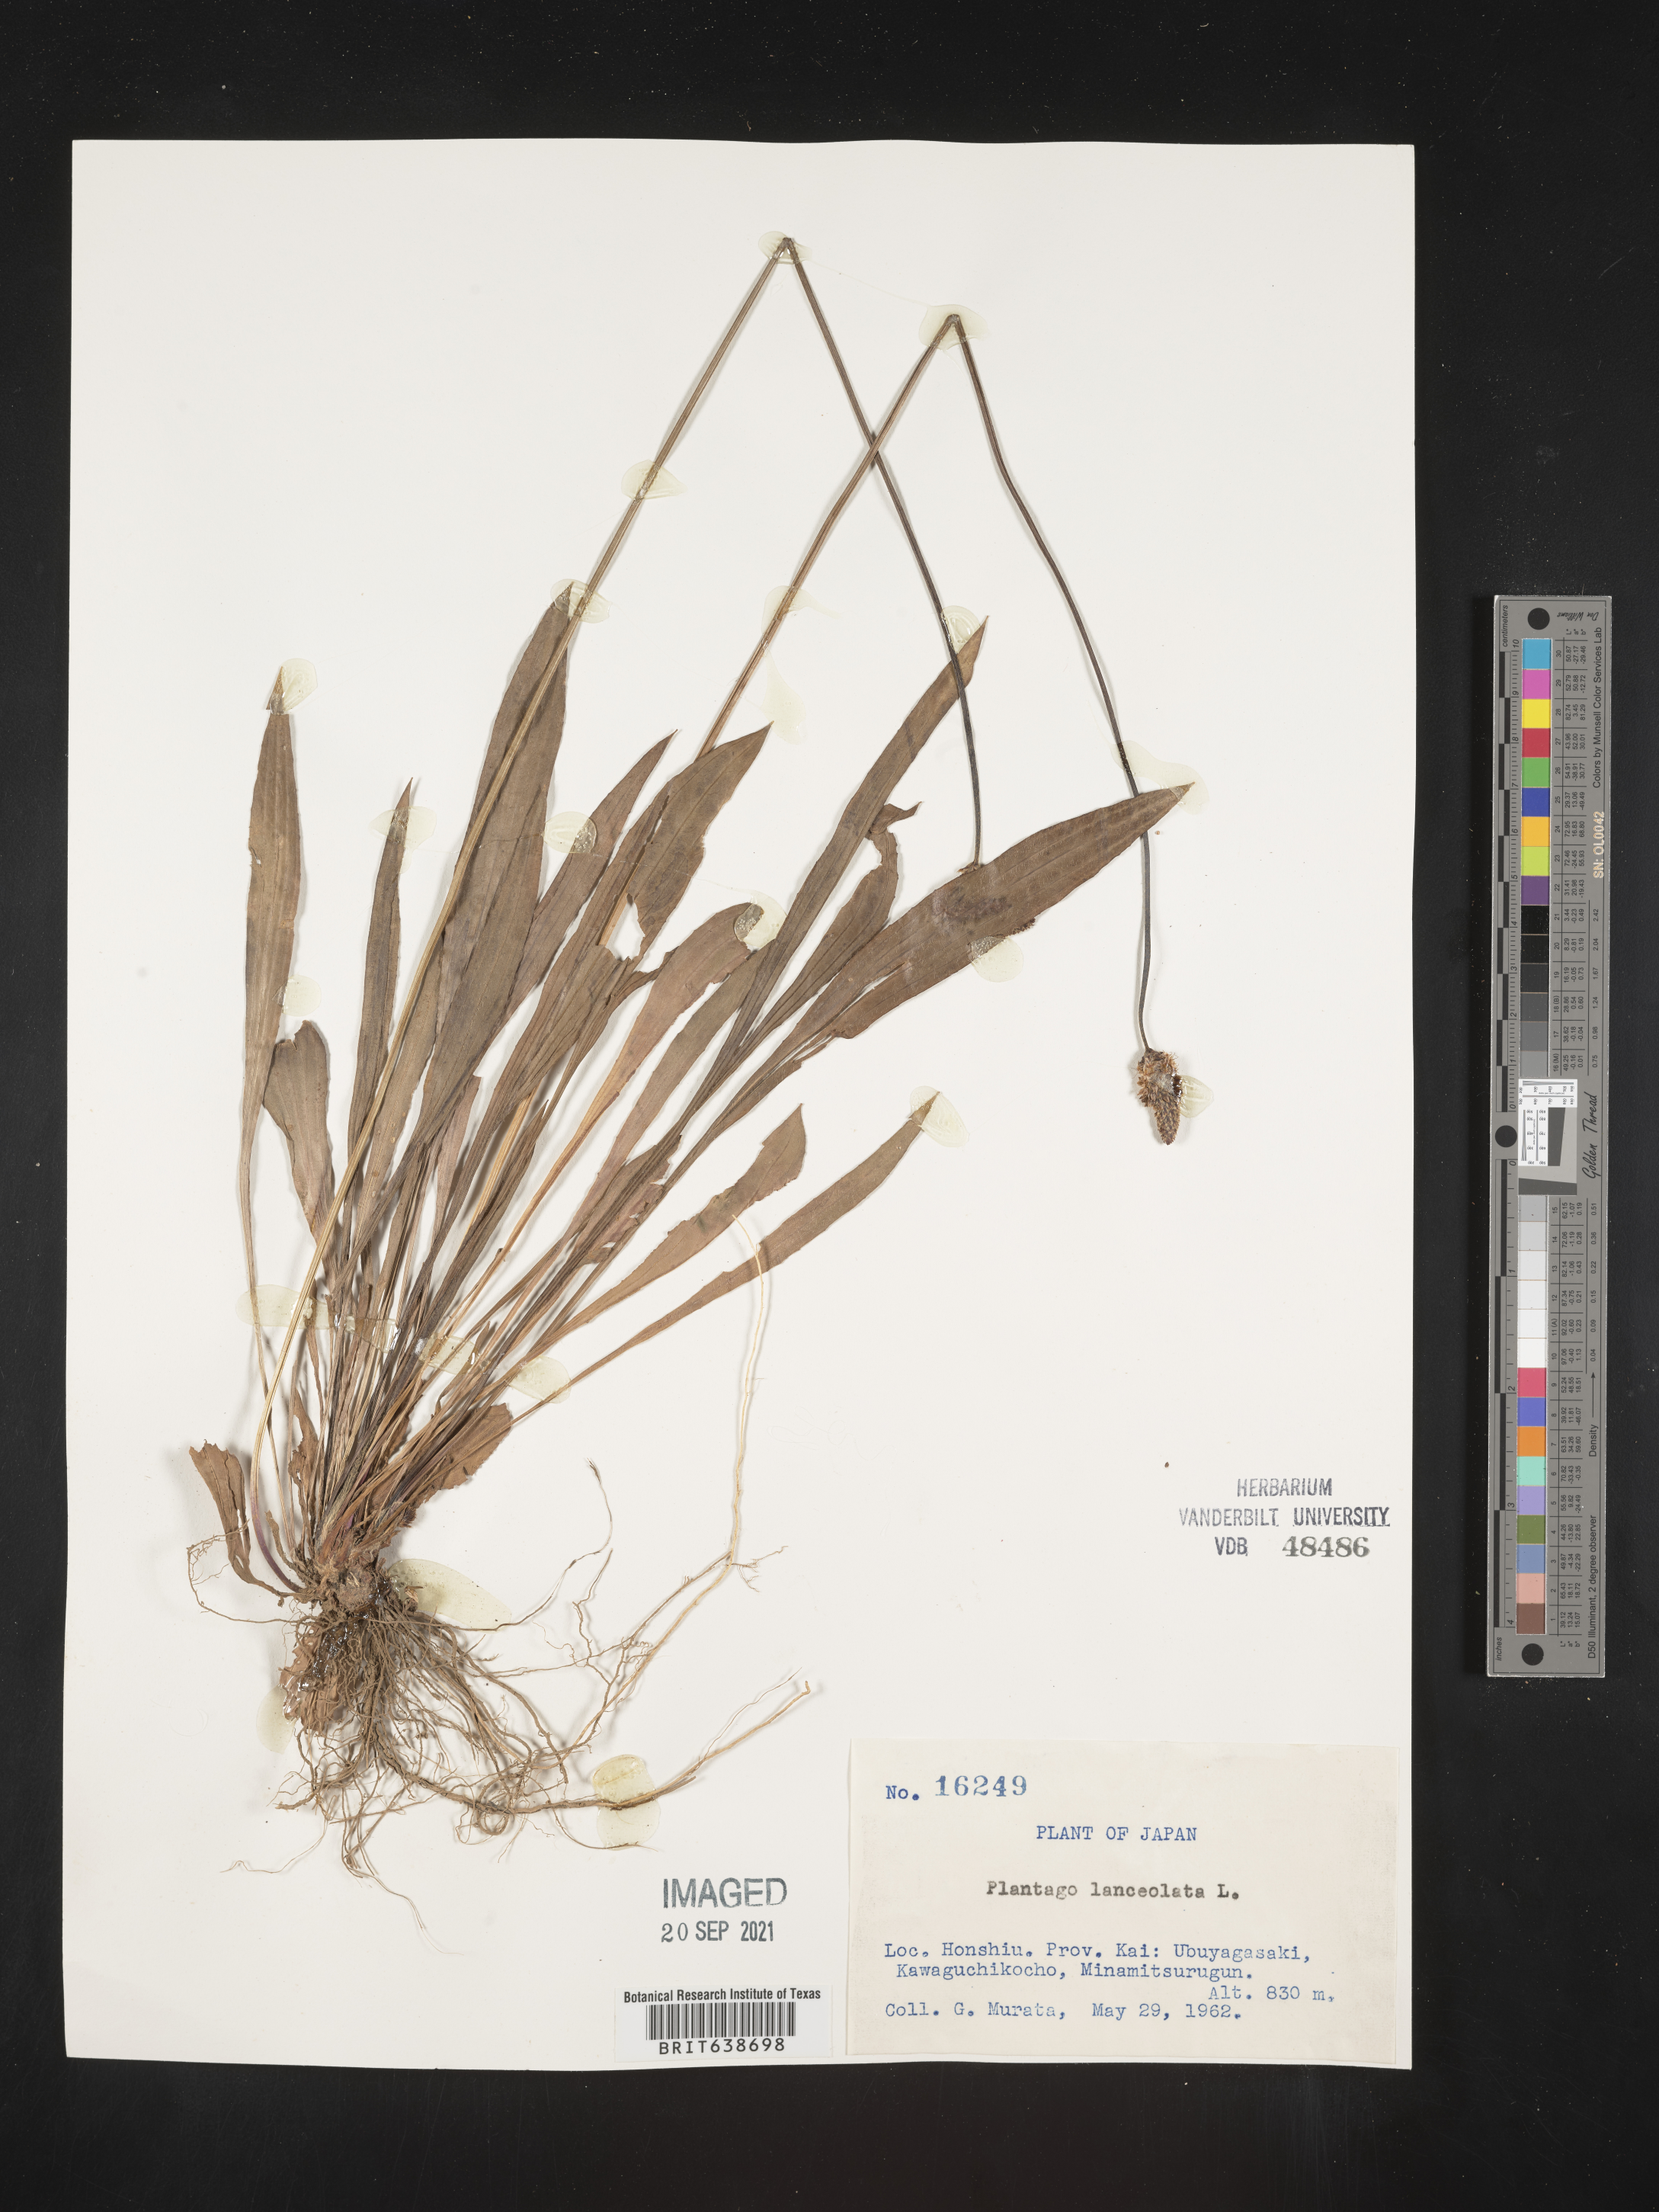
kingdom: Plantae
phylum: Tracheophyta
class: Magnoliopsida
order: Lamiales
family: Plantaginaceae
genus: Plantago
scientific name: Plantago
